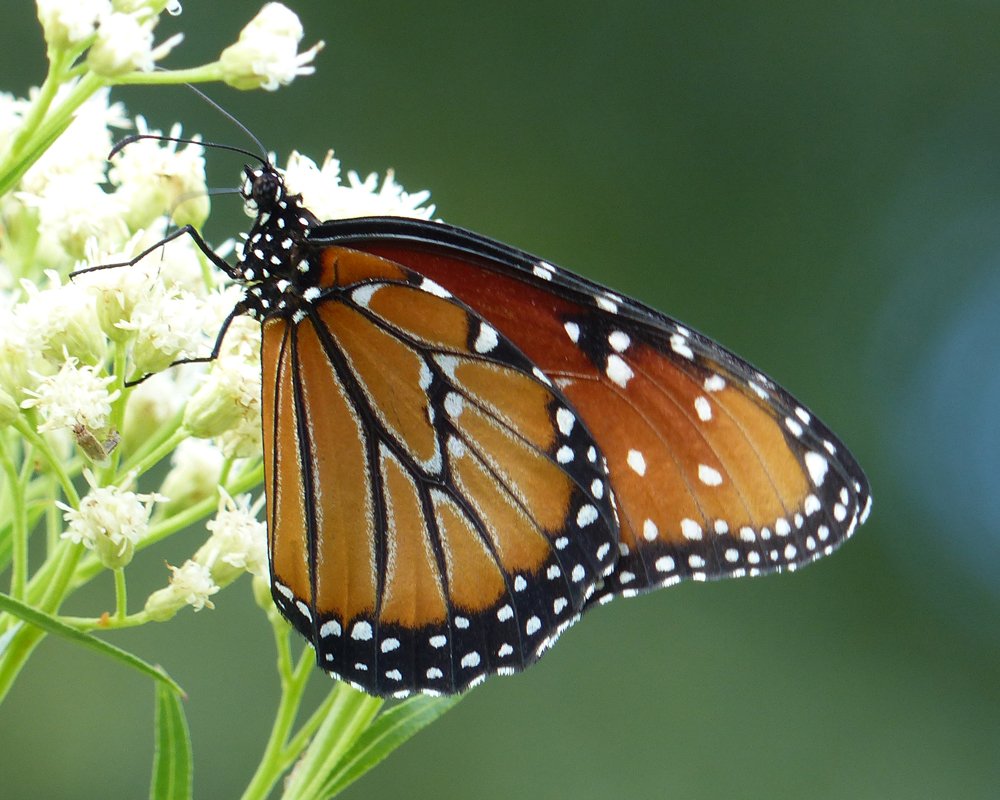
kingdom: Animalia
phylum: Arthropoda
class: Insecta
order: Lepidoptera
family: Nymphalidae
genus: Danaus
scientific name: Danaus gilippus
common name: Queen
